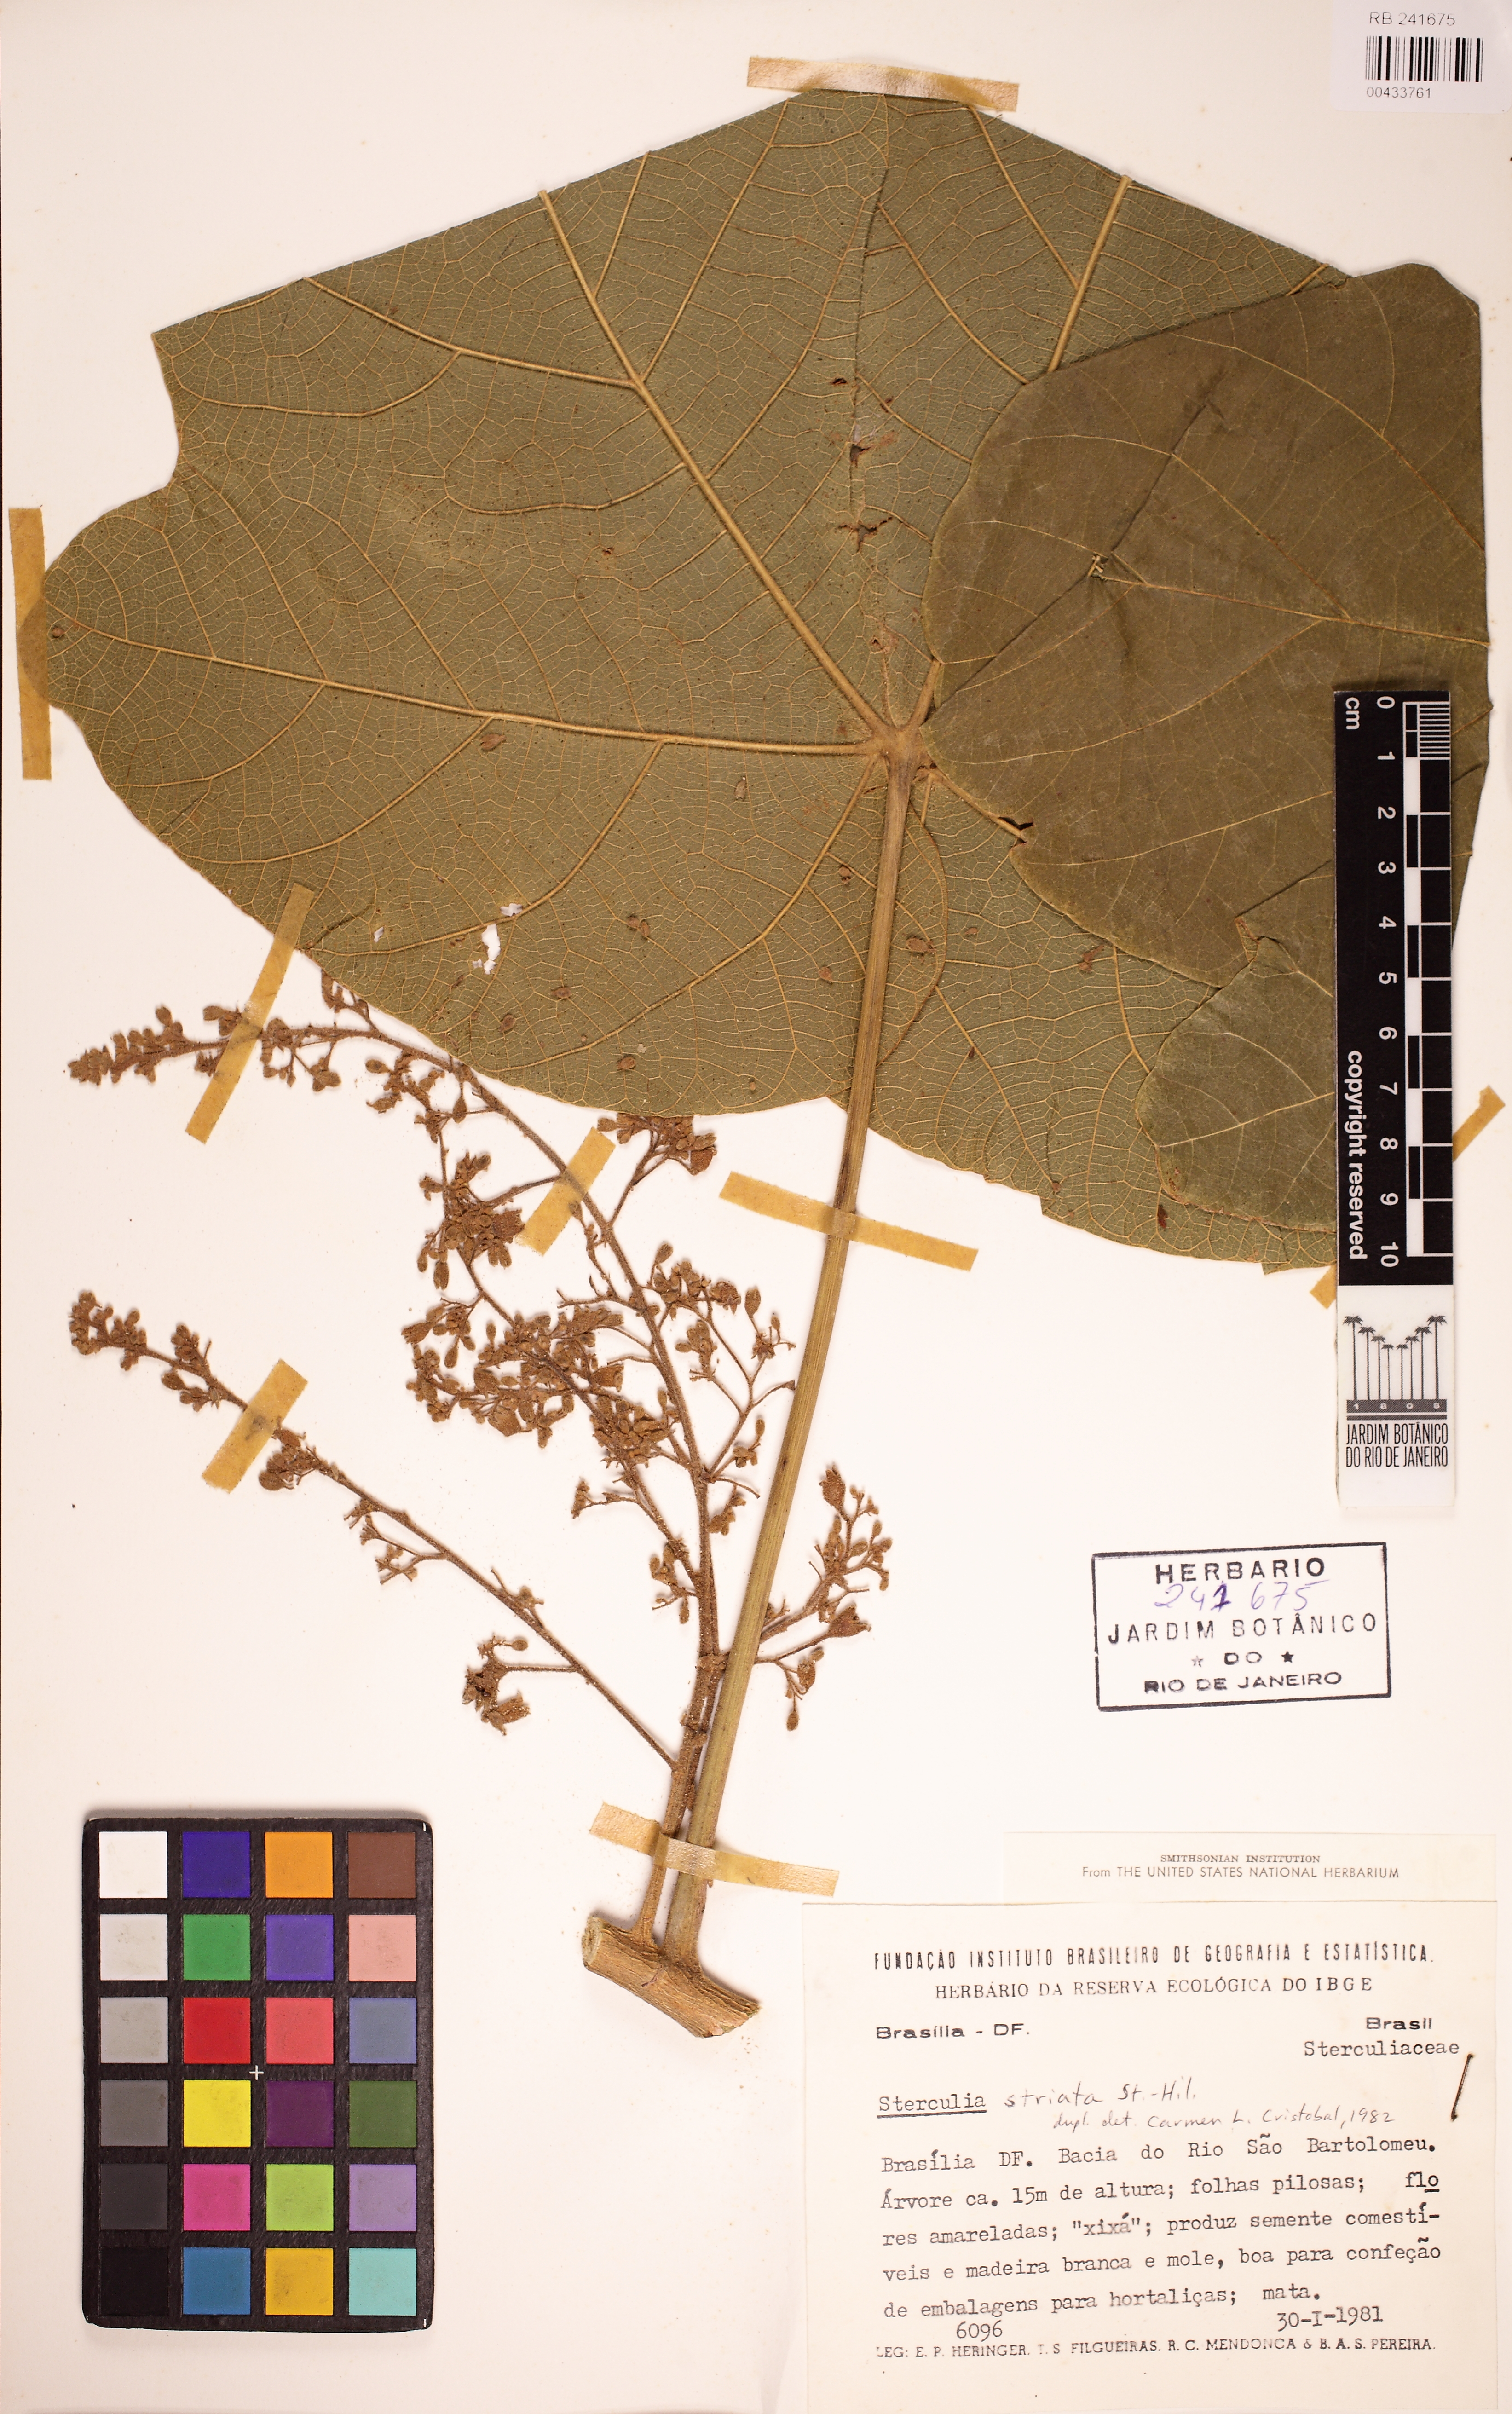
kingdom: Plantae
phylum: Tracheophyta
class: Magnoliopsida
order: Malvales
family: Malvaceae
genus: Sterculia
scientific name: Sterculia striata
